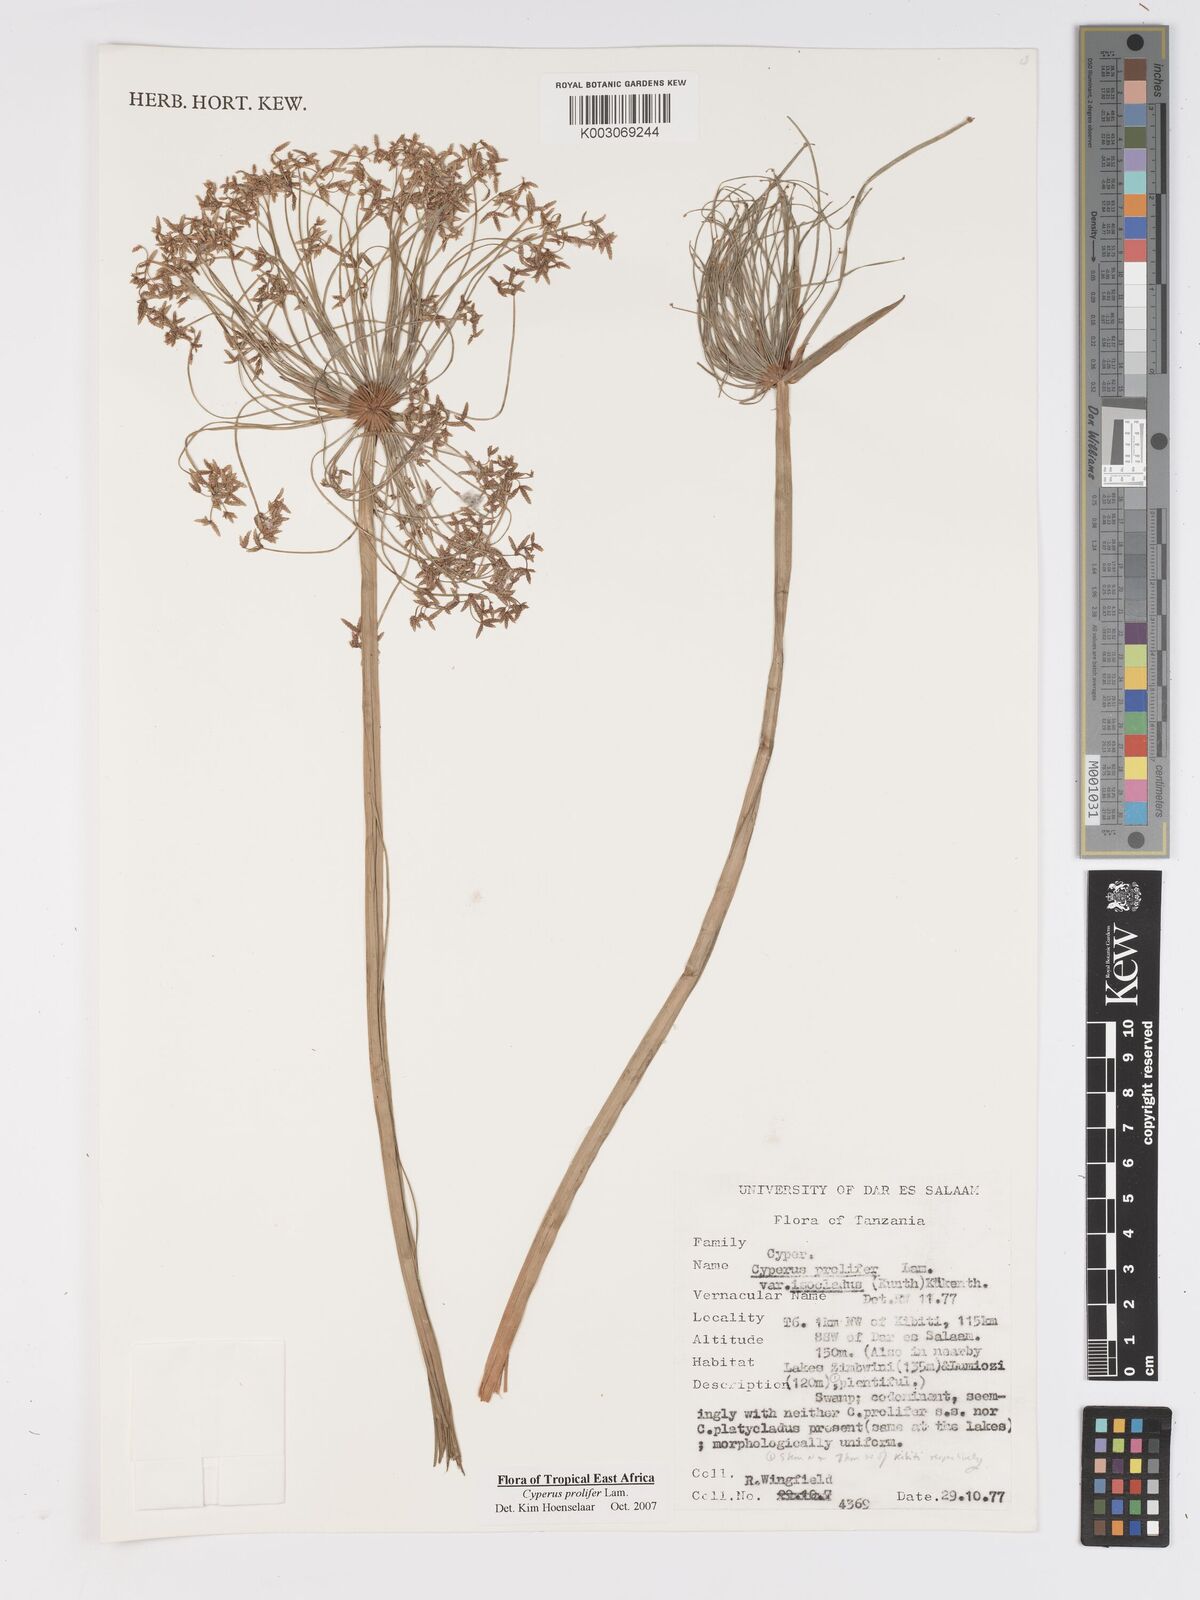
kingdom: Plantae
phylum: Tracheophyta
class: Liliopsida
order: Poales
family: Cyperaceae
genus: Cyperus
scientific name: Cyperus prolifer
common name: Miniature flatsedge
